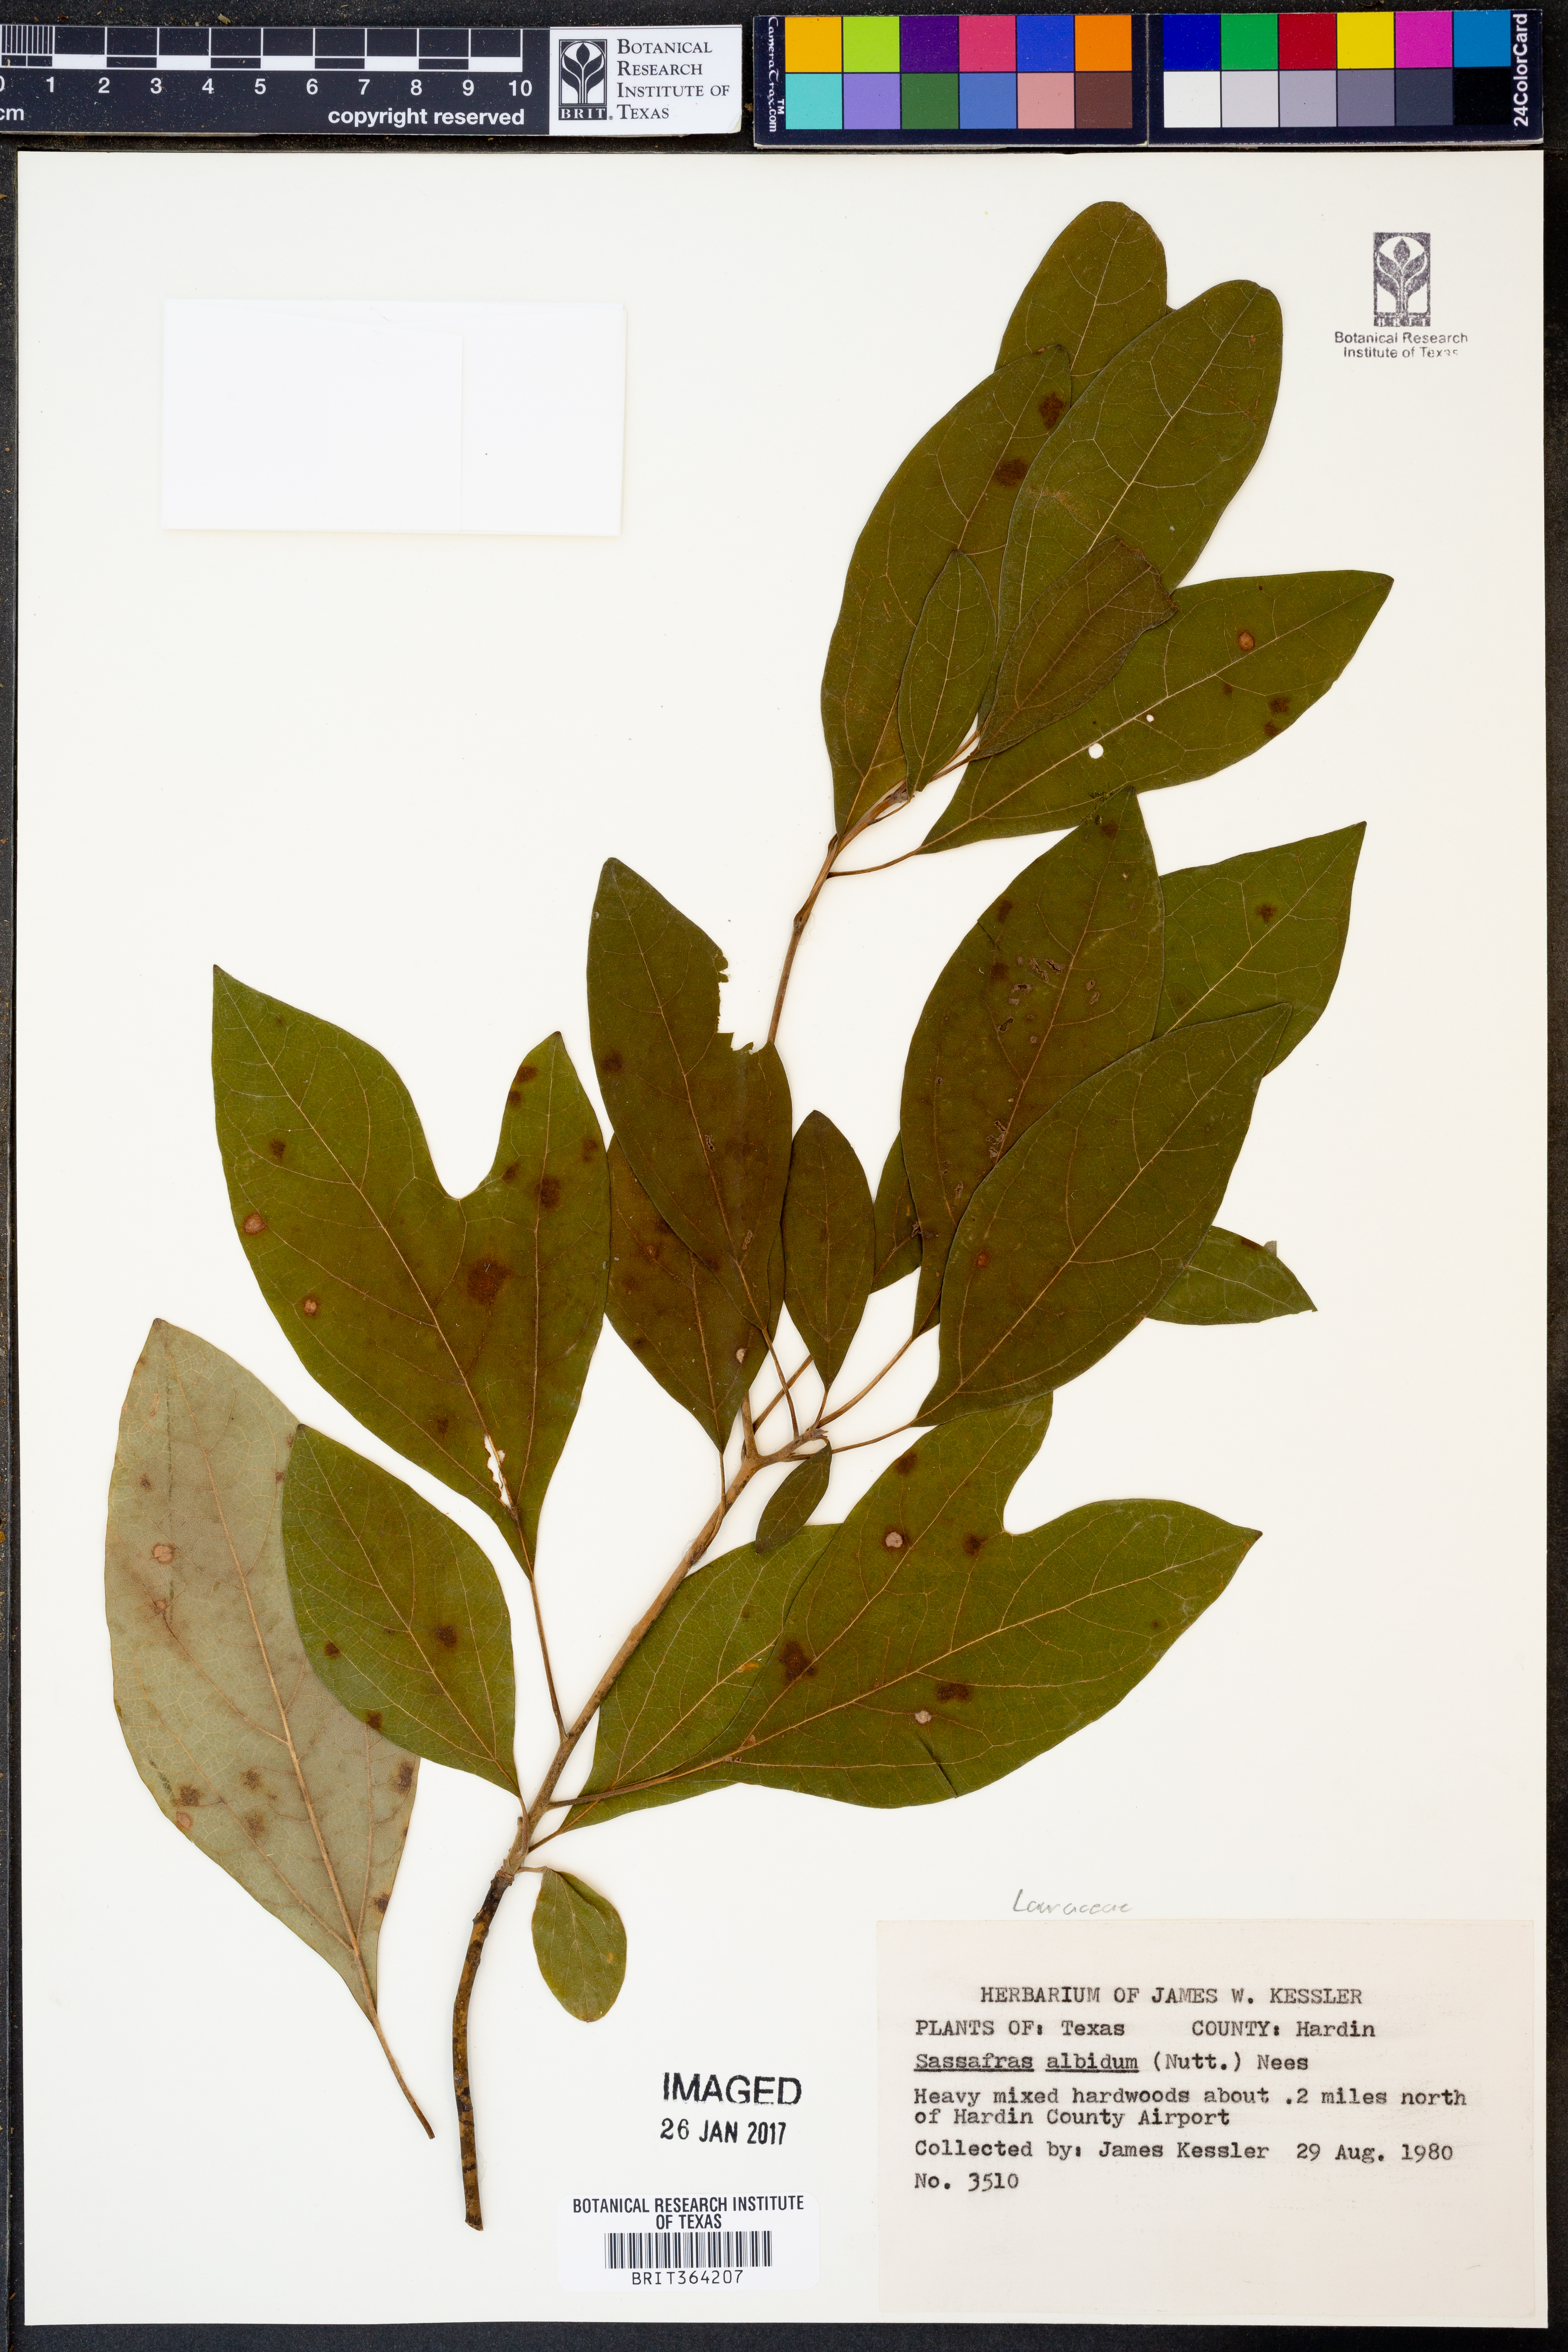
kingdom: Plantae
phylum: Tracheophyta
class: Magnoliopsida
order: Laurales
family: Lauraceae
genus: Sassafras
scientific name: Sassafras albidum
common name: Sassafras
